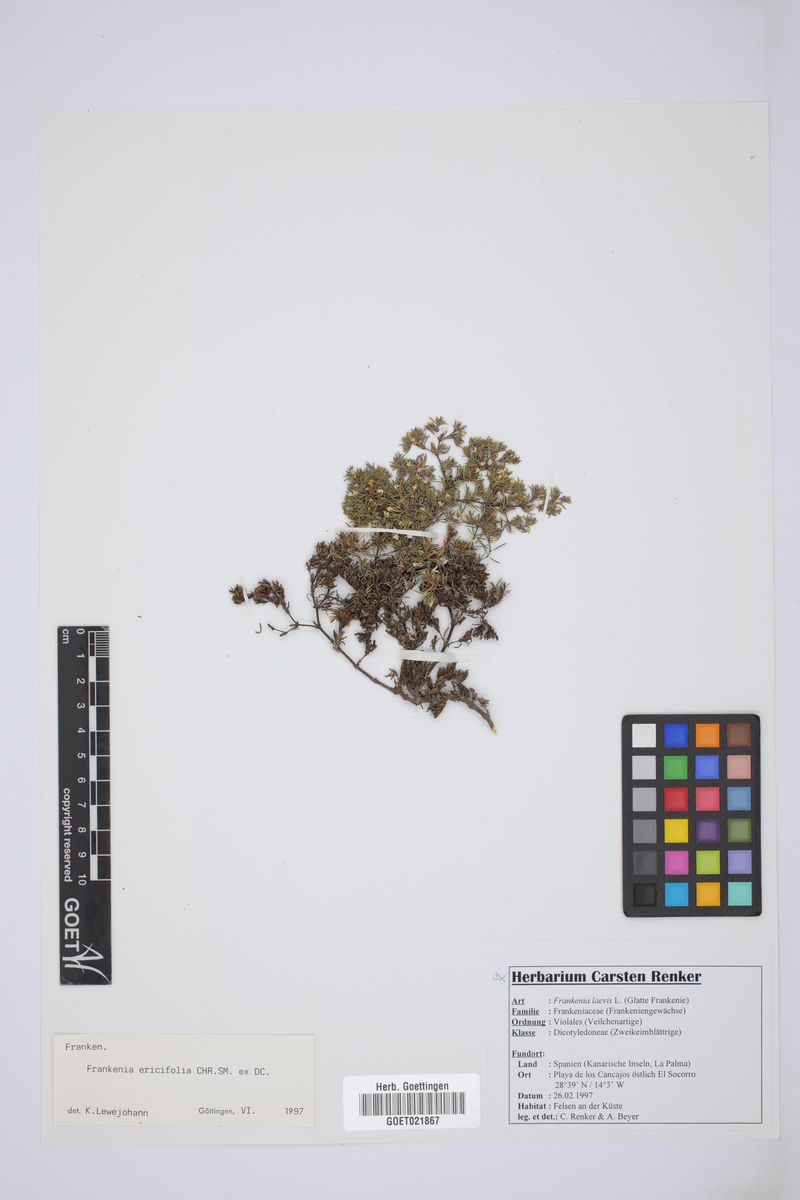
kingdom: Plantae
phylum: Tracheophyta
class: Magnoliopsida
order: Caryophyllales
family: Frankeniaceae
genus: Frankenia
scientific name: Frankenia ericifolia
